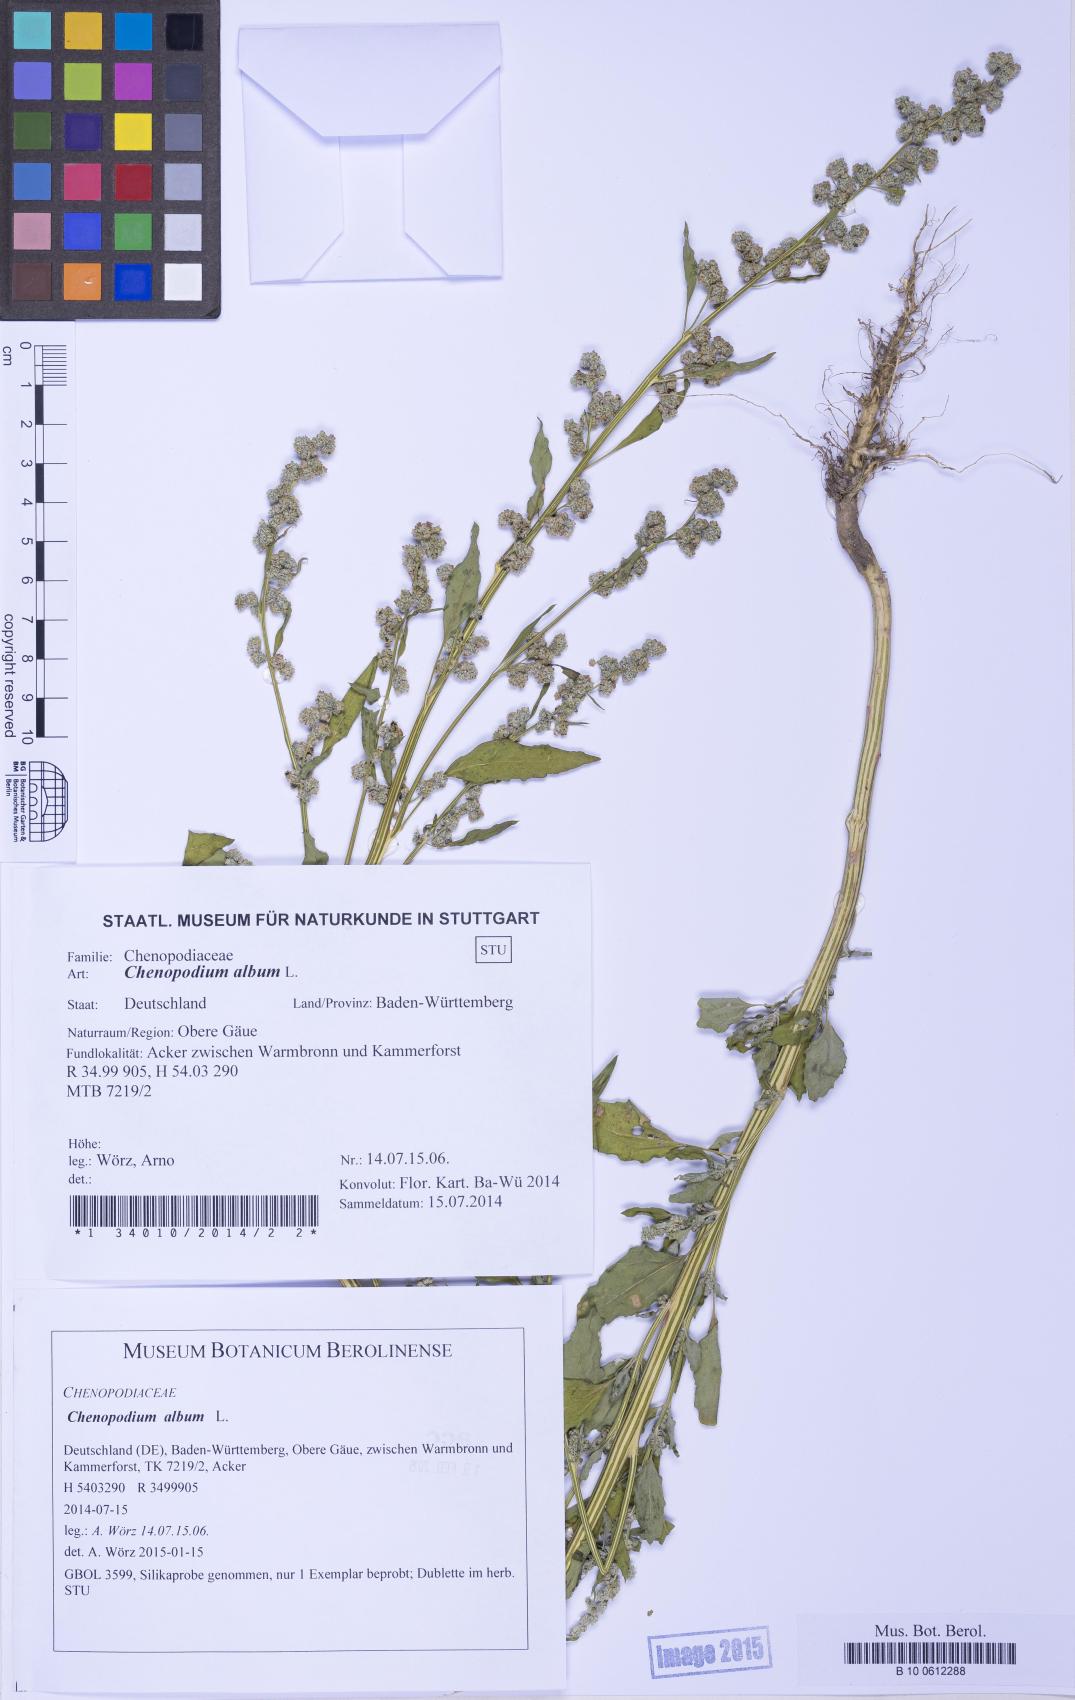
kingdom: Plantae
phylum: Tracheophyta
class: Magnoliopsida
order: Caryophyllales
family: Amaranthaceae
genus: Chenopodium
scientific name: Chenopodium album
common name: Fat-hen
